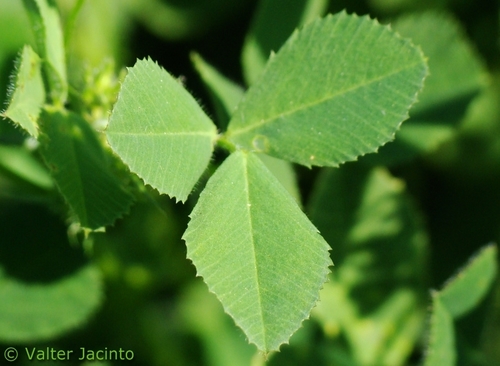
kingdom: Plantae
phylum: Tracheophyta
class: Magnoliopsida
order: Fabales
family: Fabaceae
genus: Medicago
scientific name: Medicago falcata
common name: Sickle medick
